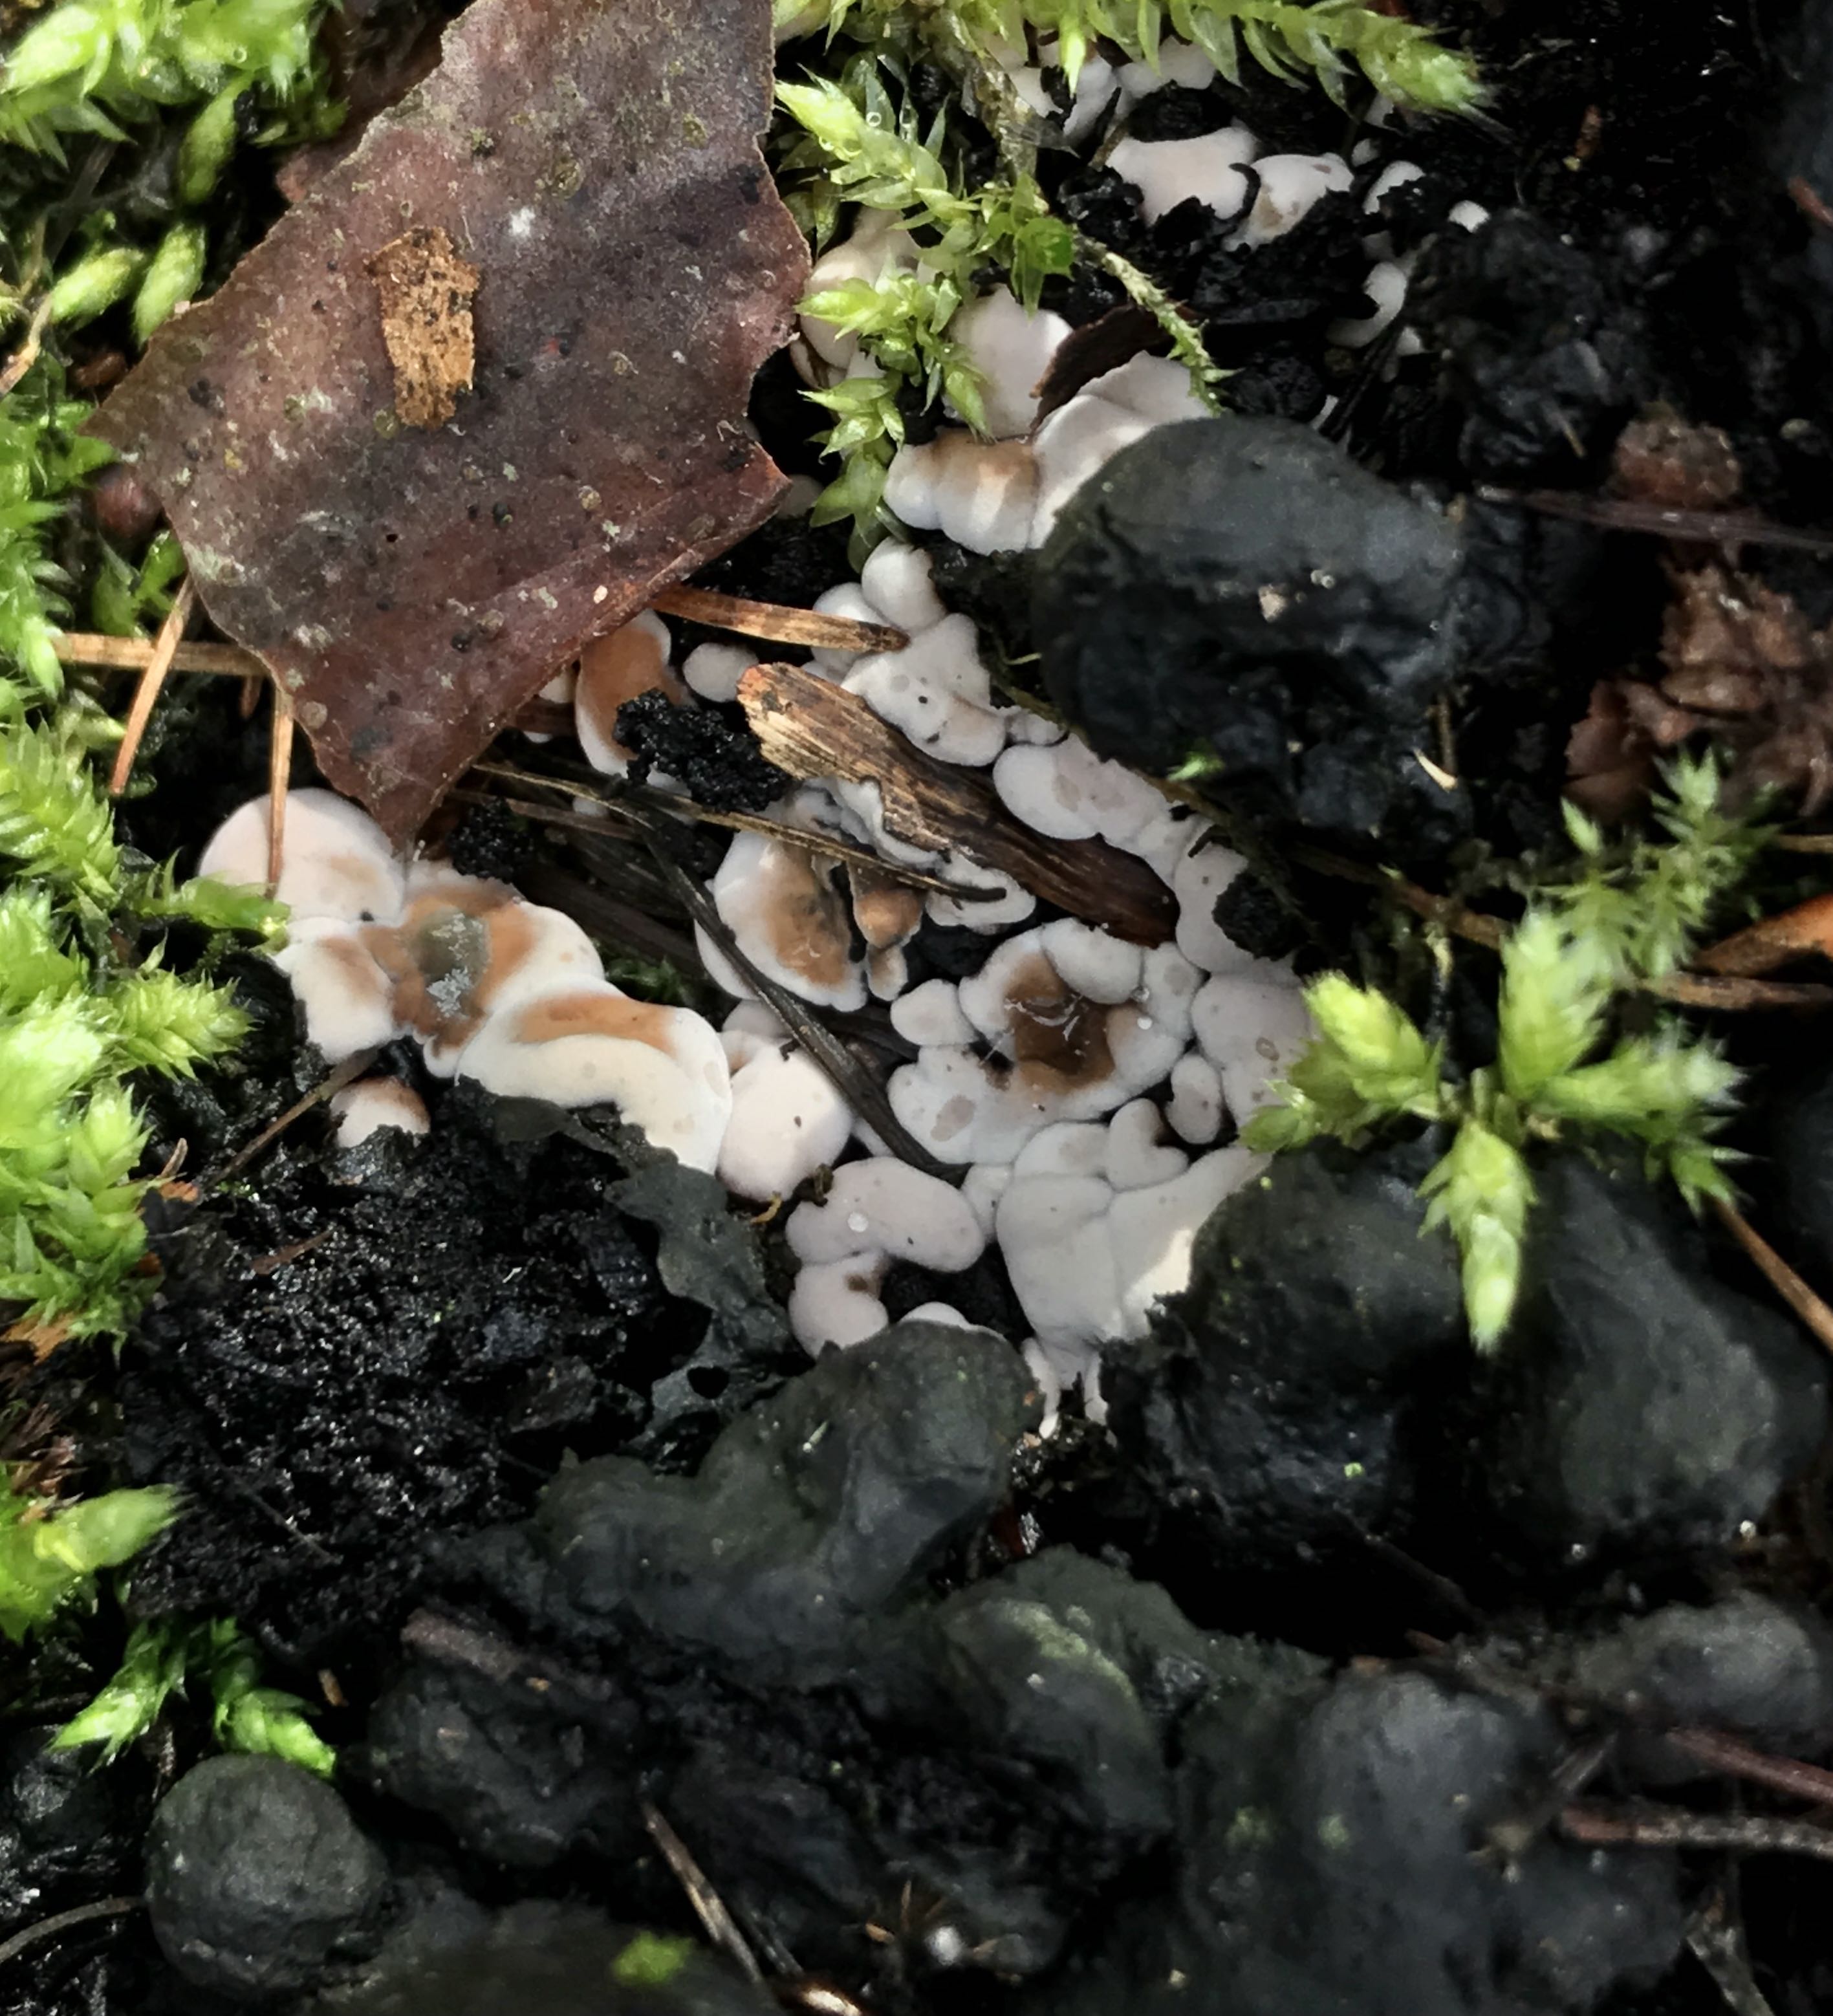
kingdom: Fungi
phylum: Ascomycota
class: Sordariomycetes
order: Xylariales
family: Xylariaceae
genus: Kretzschmaria
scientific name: Kretzschmaria deusta
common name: stor kulsvamp
